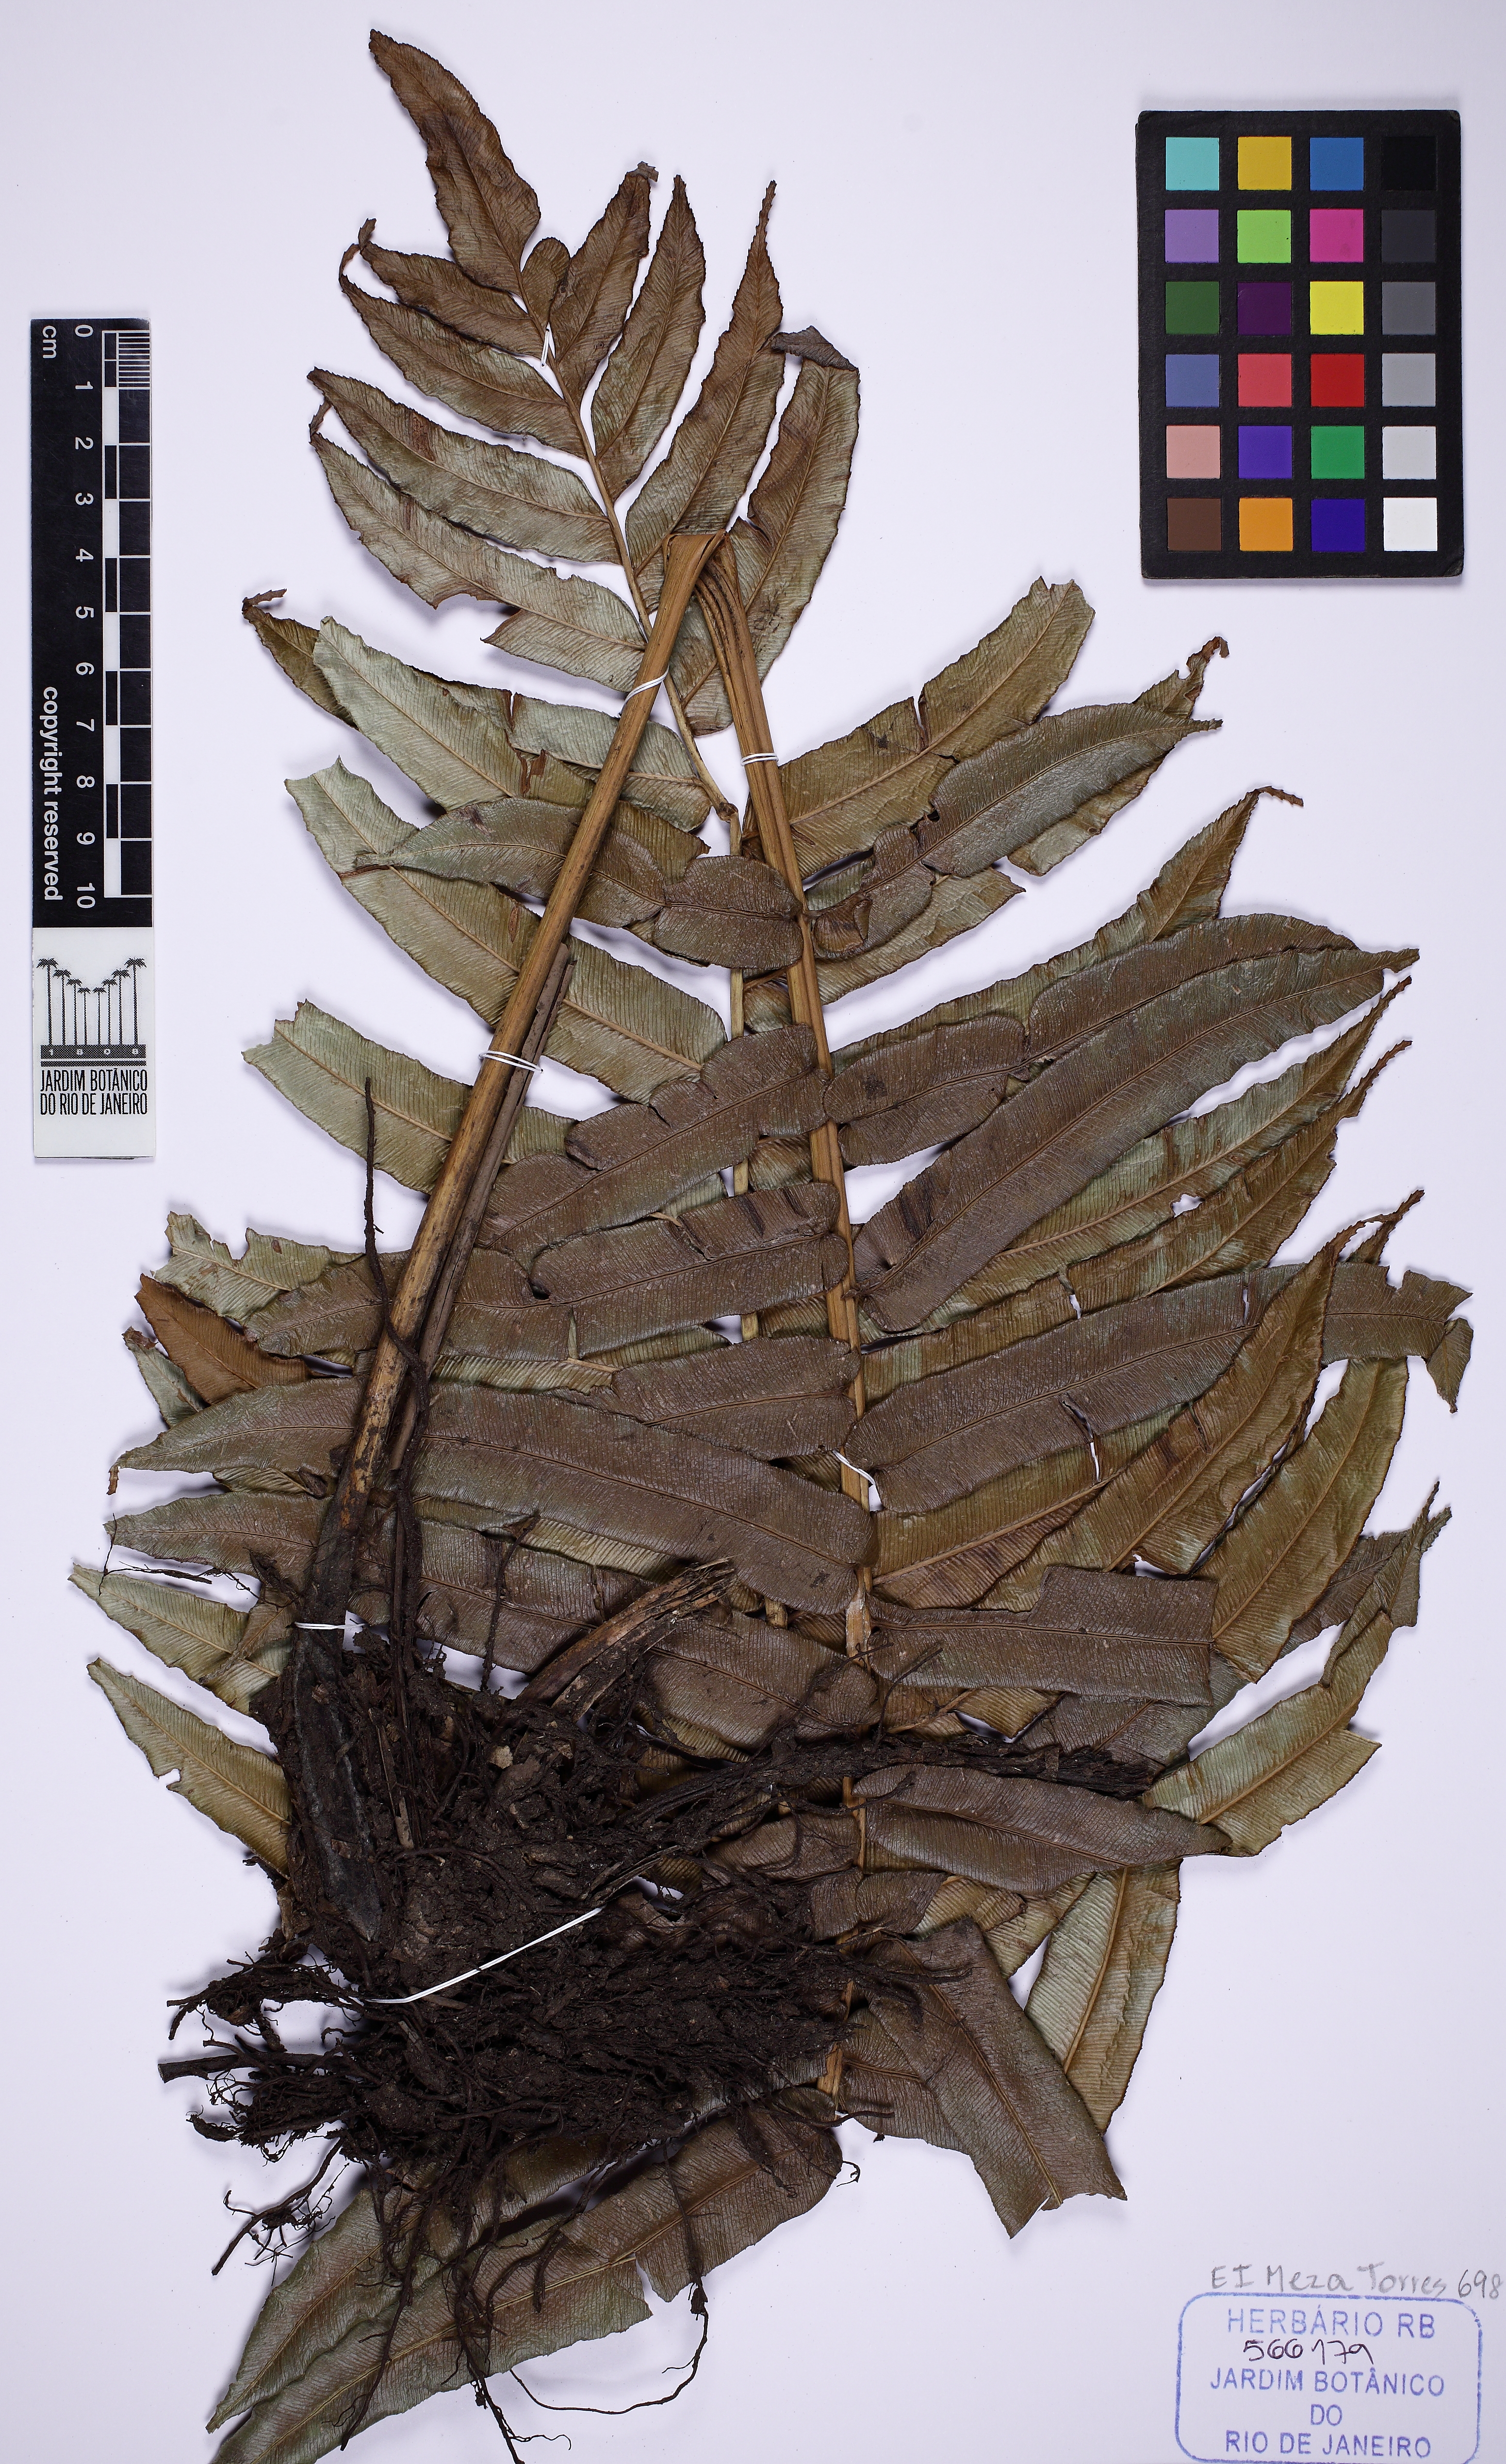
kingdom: Plantae
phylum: Tracheophyta
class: Polypodiopsida
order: Polypodiales
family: Blechnaceae
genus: Parablechnum
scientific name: Parablechnum chilense
